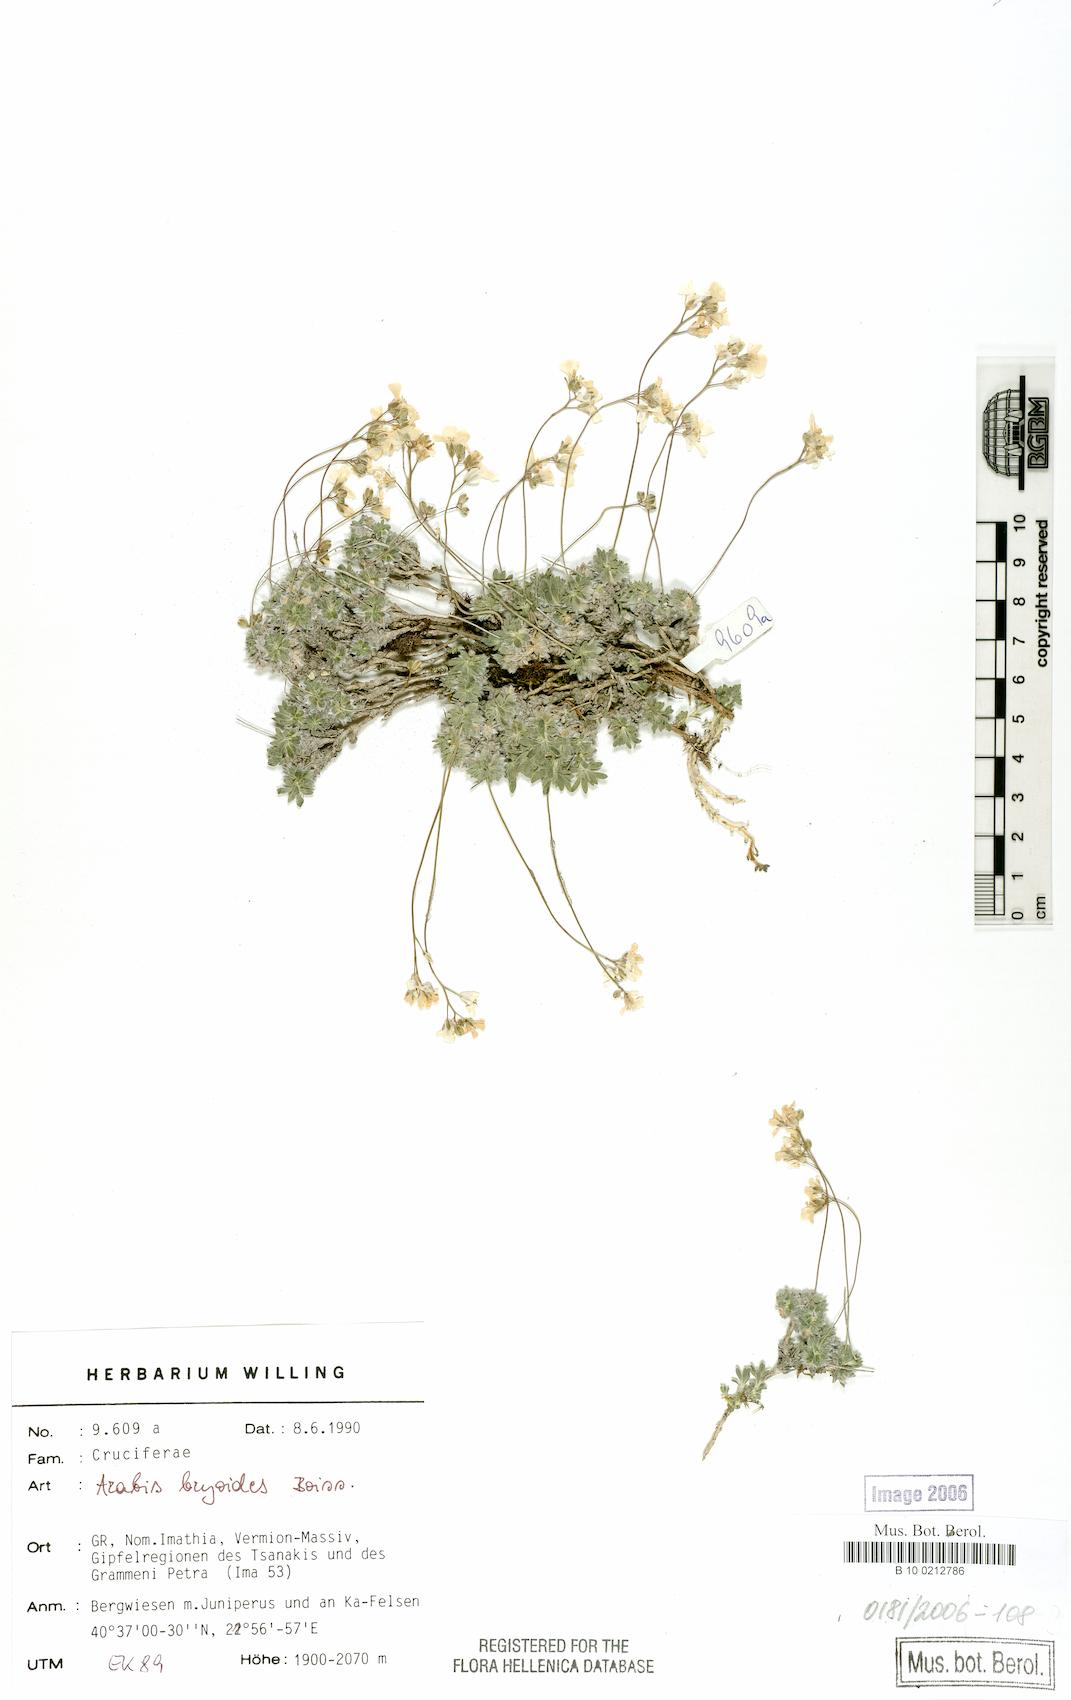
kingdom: Plantae
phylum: Tracheophyta
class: Magnoliopsida
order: Brassicales
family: Brassicaceae
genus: Arabis
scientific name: Arabis bryoides
